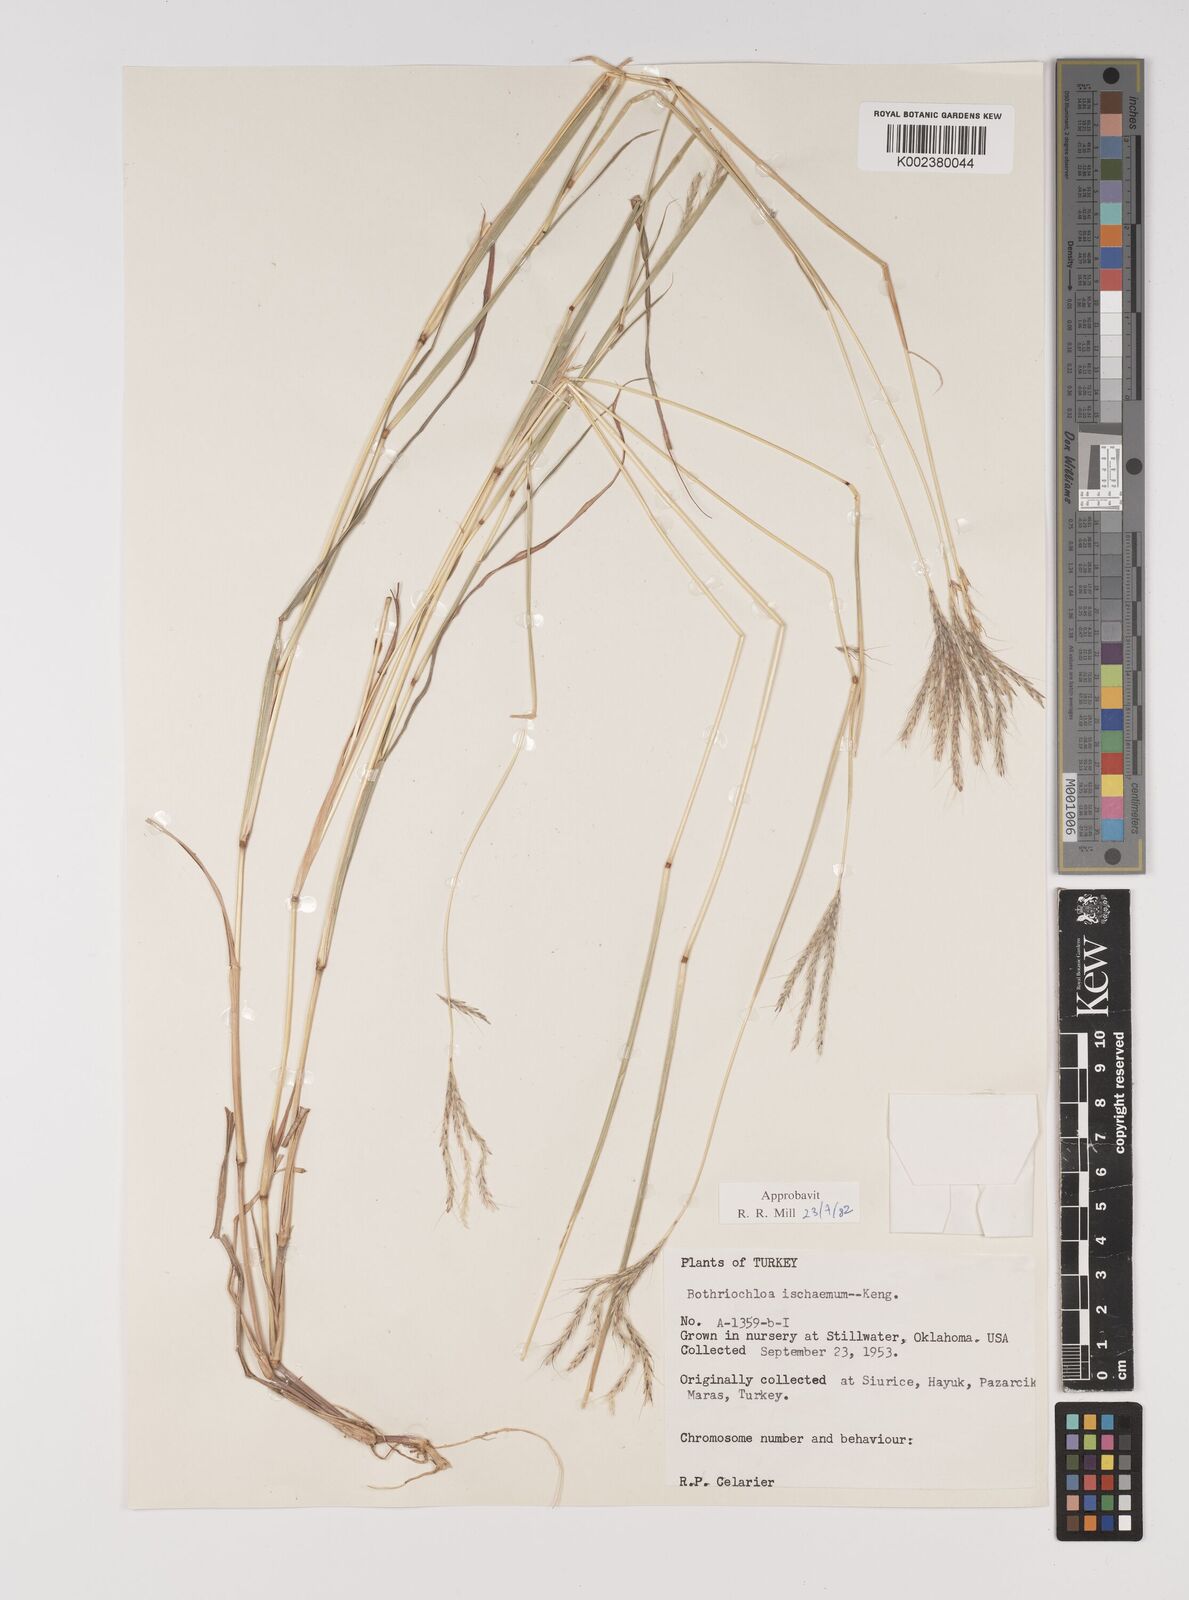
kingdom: Plantae
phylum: Tracheophyta
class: Liliopsida
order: Poales
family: Poaceae
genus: Bothriochloa
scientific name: Bothriochloa ischaemum
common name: Yellow bluestem
